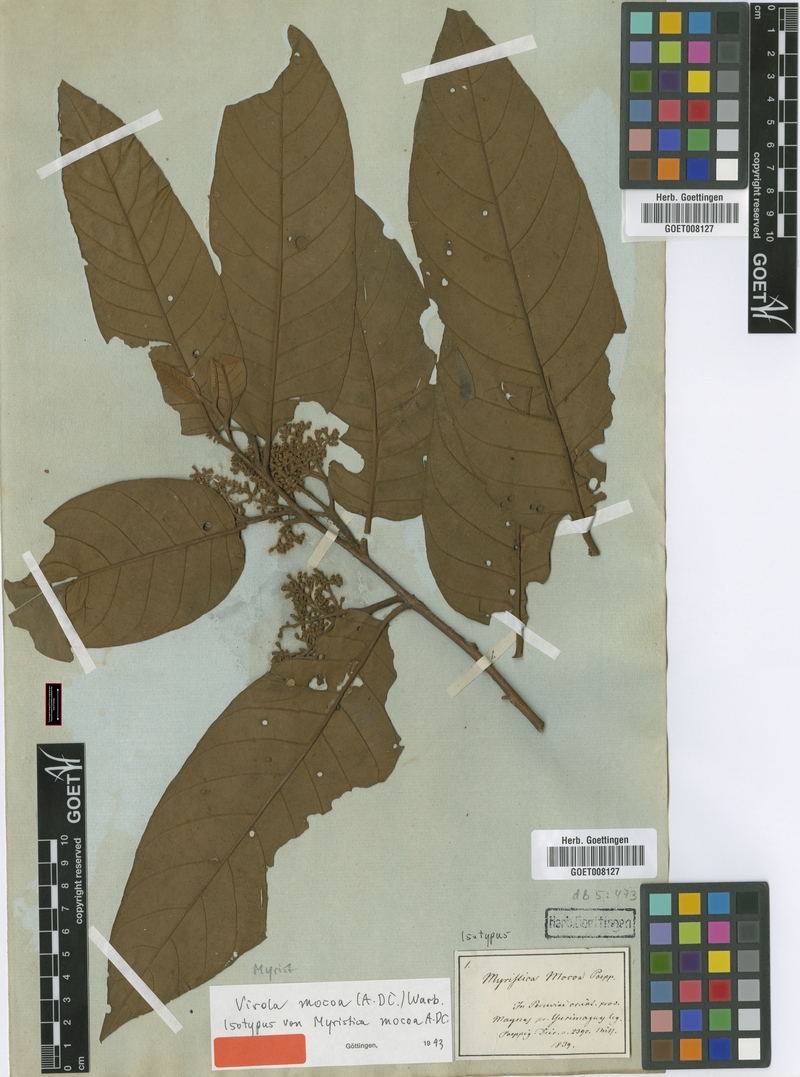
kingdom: Plantae
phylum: Tracheophyta
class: Magnoliopsida
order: Magnoliales
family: Myristicaceae
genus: Virola
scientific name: Virola sebifera
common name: Red ucuuba
